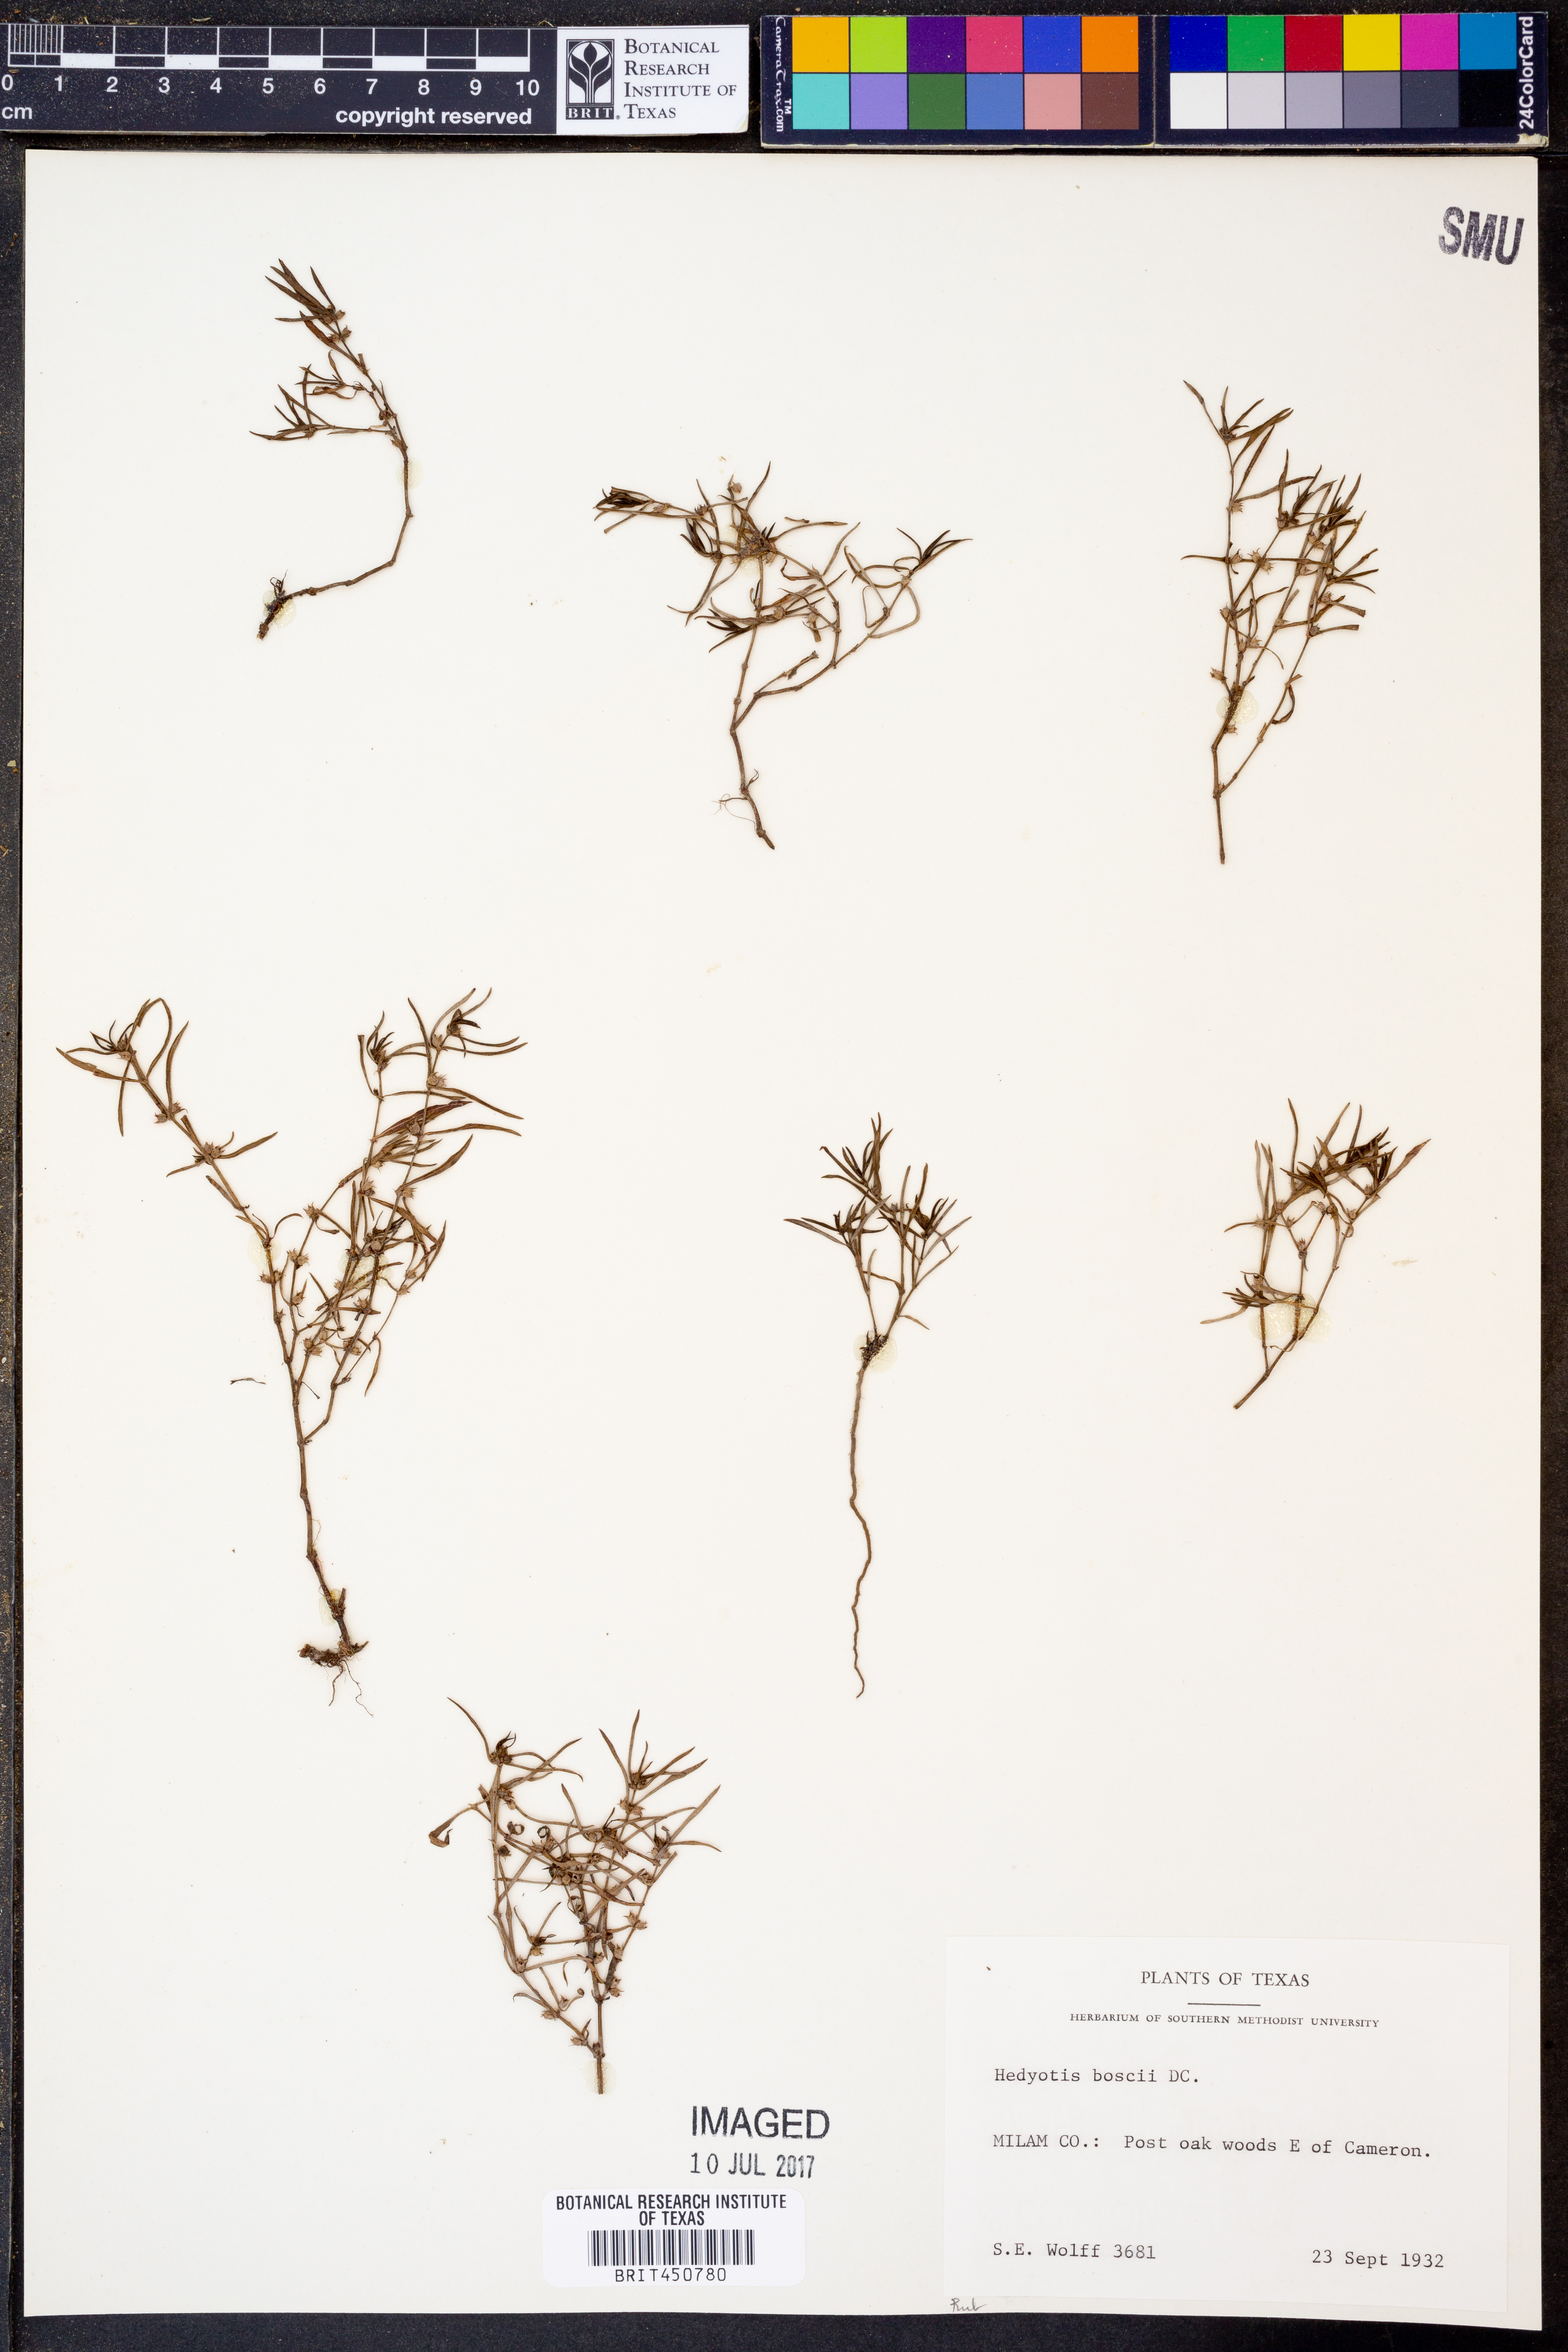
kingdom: Plantae
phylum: Tracheophyta
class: Magnoliopsida
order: Gentianales
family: Rubiaceae
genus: Oldenlandia
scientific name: Oldenlandia boscii
